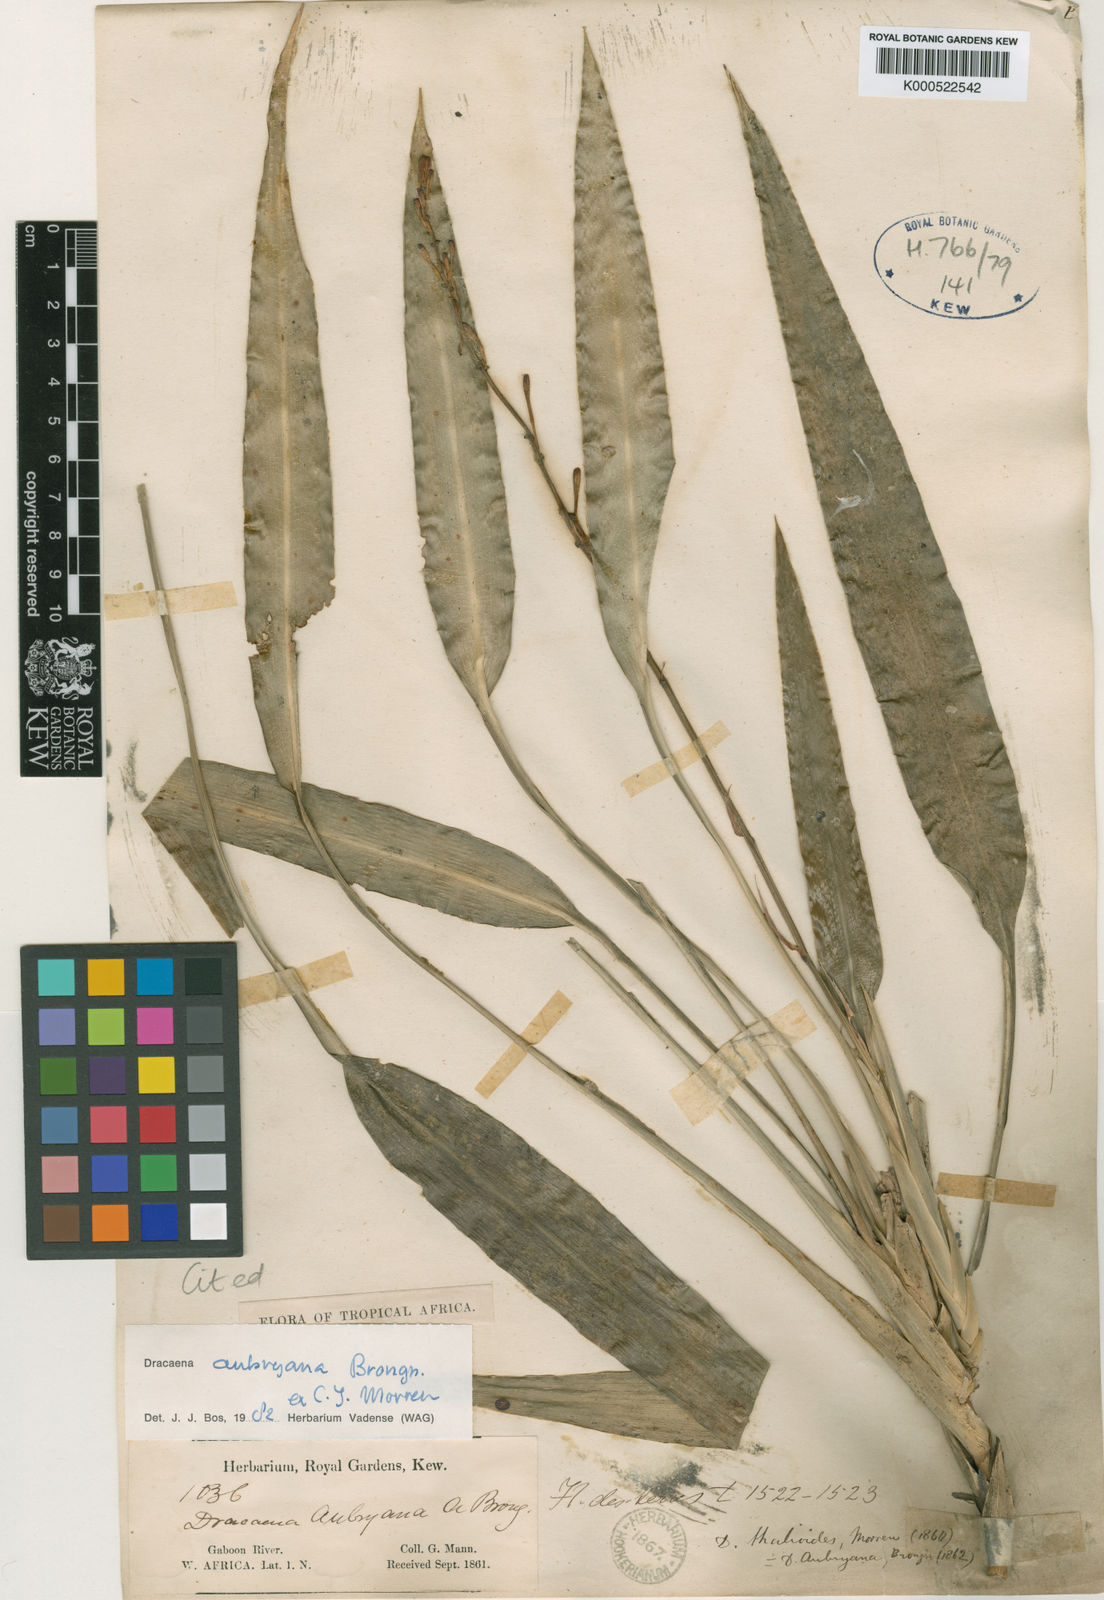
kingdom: Plantae
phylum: Tracheophyta
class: Liliopsida
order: Asparagales
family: Asparagaceae
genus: Dracaena
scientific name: Dracaena aubryana
